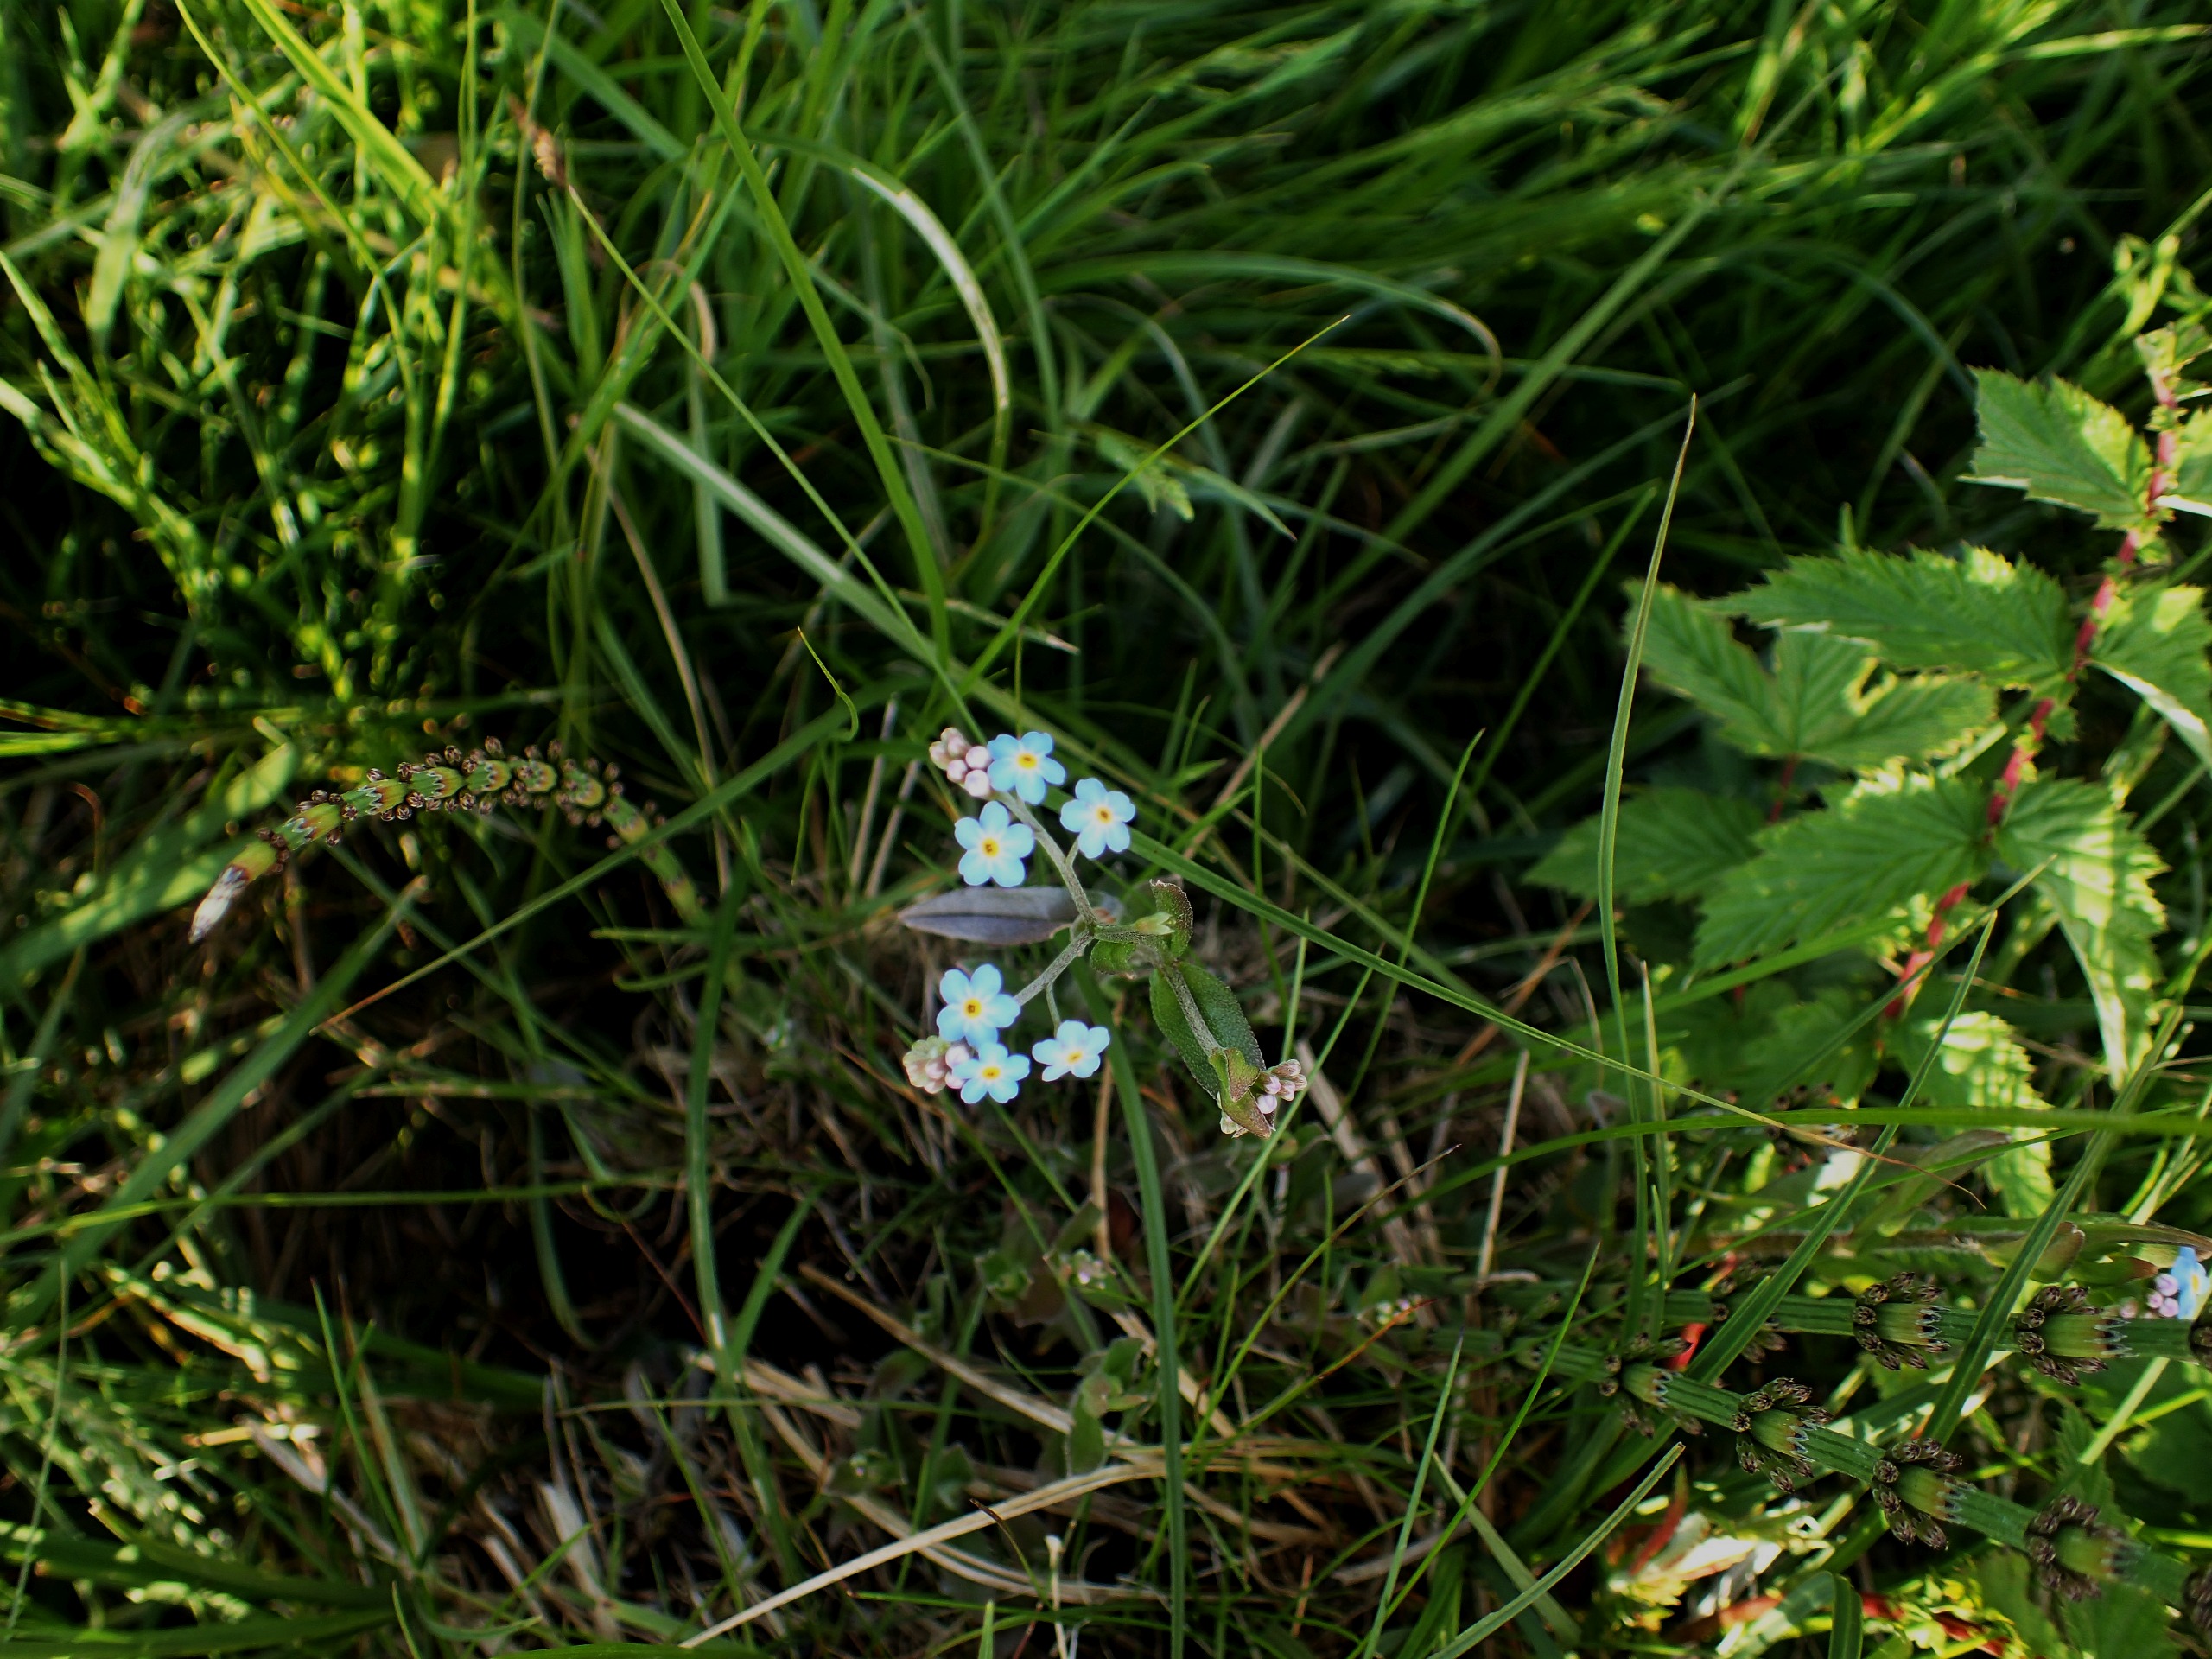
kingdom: Plantae
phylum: Tracheophyta
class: Magnoliopsida
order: Boraginales
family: Boraginaceae
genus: Myosotis
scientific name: Myosotis scorpioides
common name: Eng-forglemmigej
